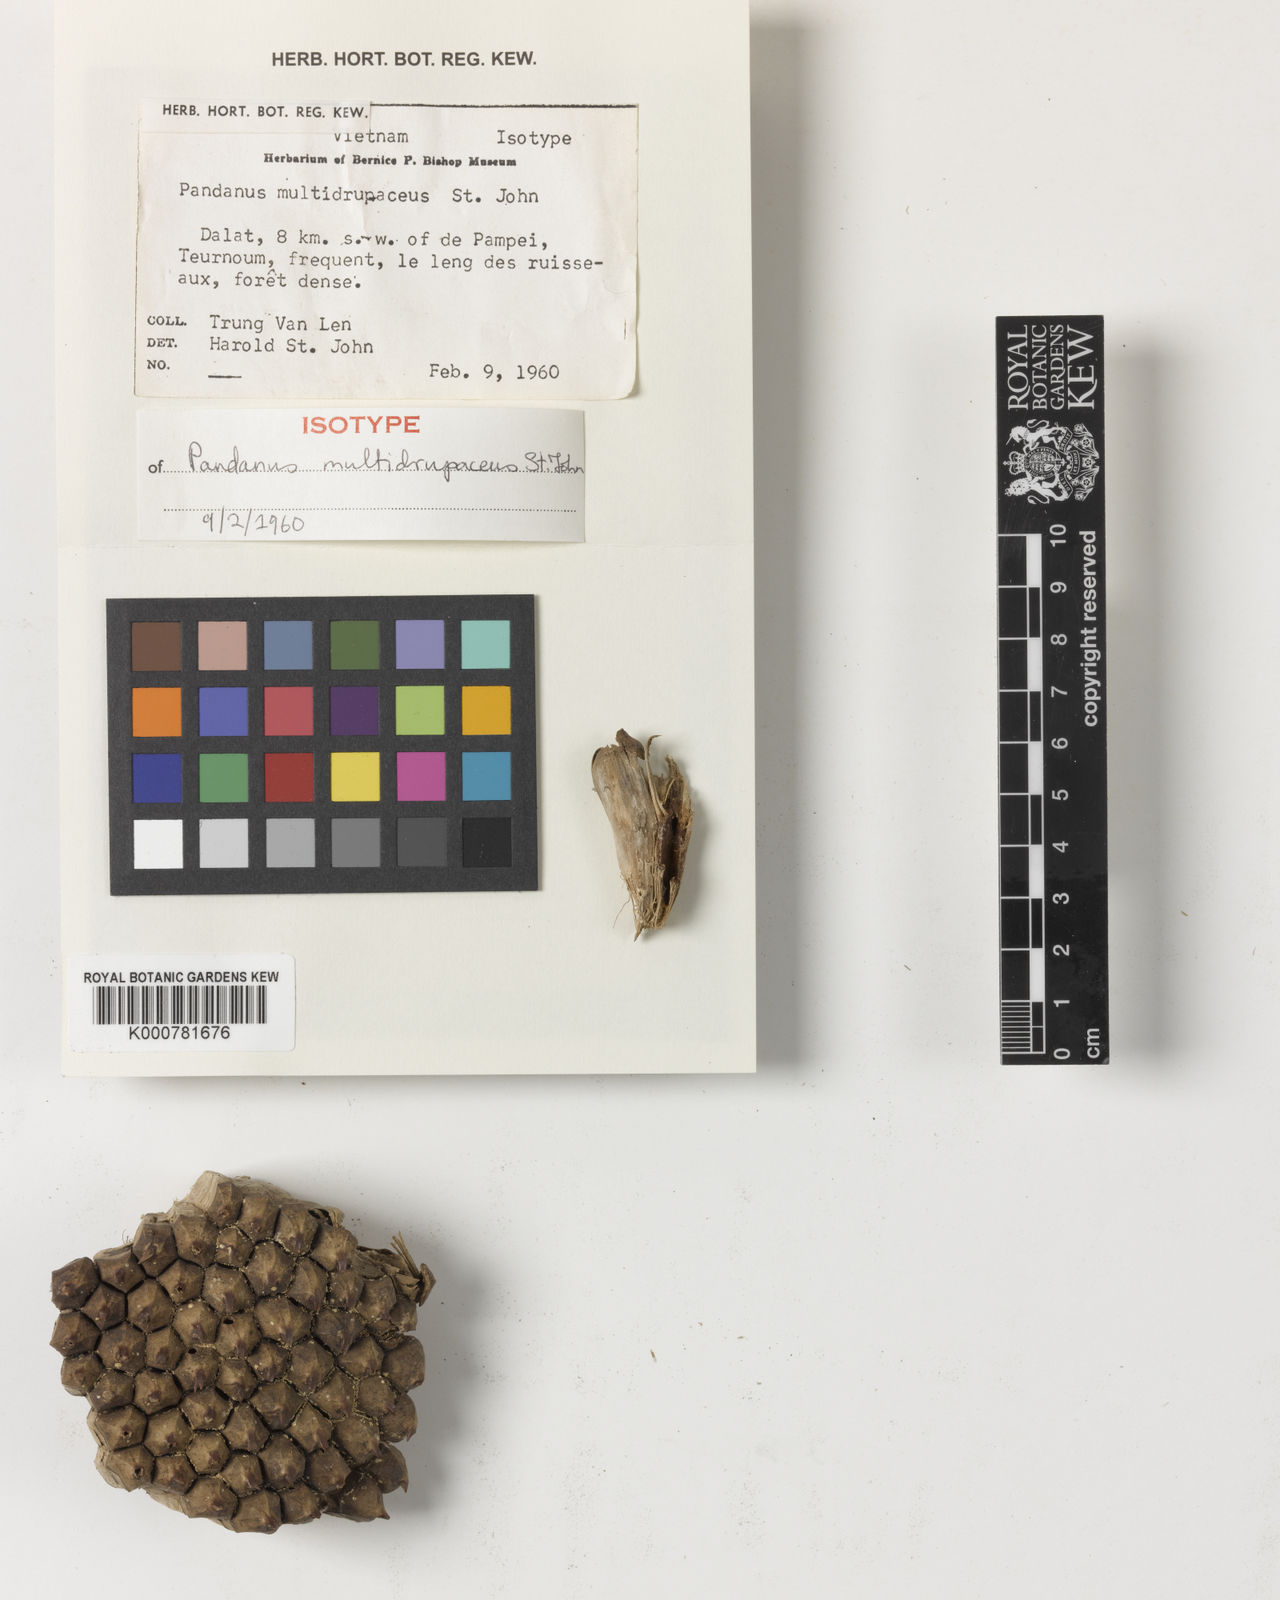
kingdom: Plantae
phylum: Tracheophyta
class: Liliopsida
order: Pandanales
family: Pandanaceae
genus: Pandanus
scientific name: Pandanus multidrupaceus
